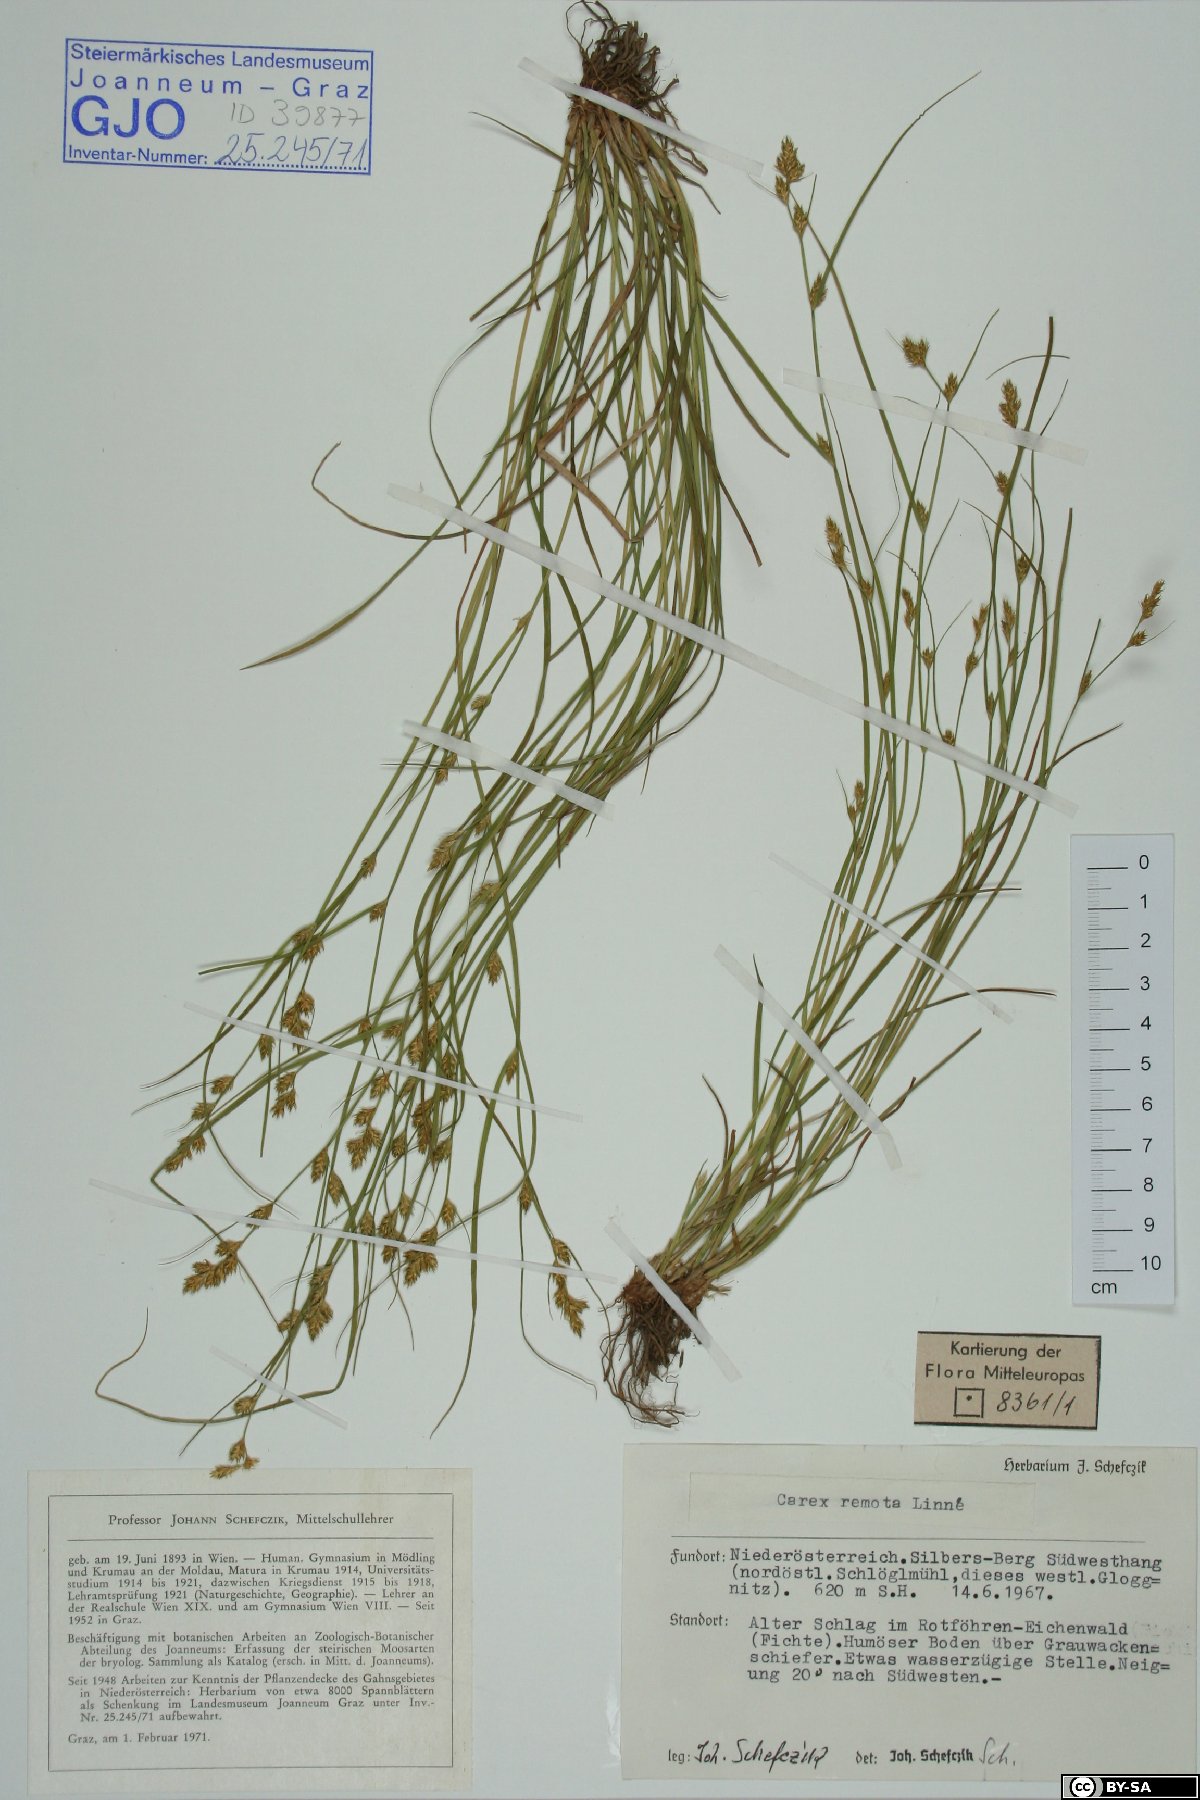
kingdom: Plantae
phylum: Tracheophyta
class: Liliopsida
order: Poales
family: Cyperaceae
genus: Carex
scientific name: Carex remota
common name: Remote sedge
